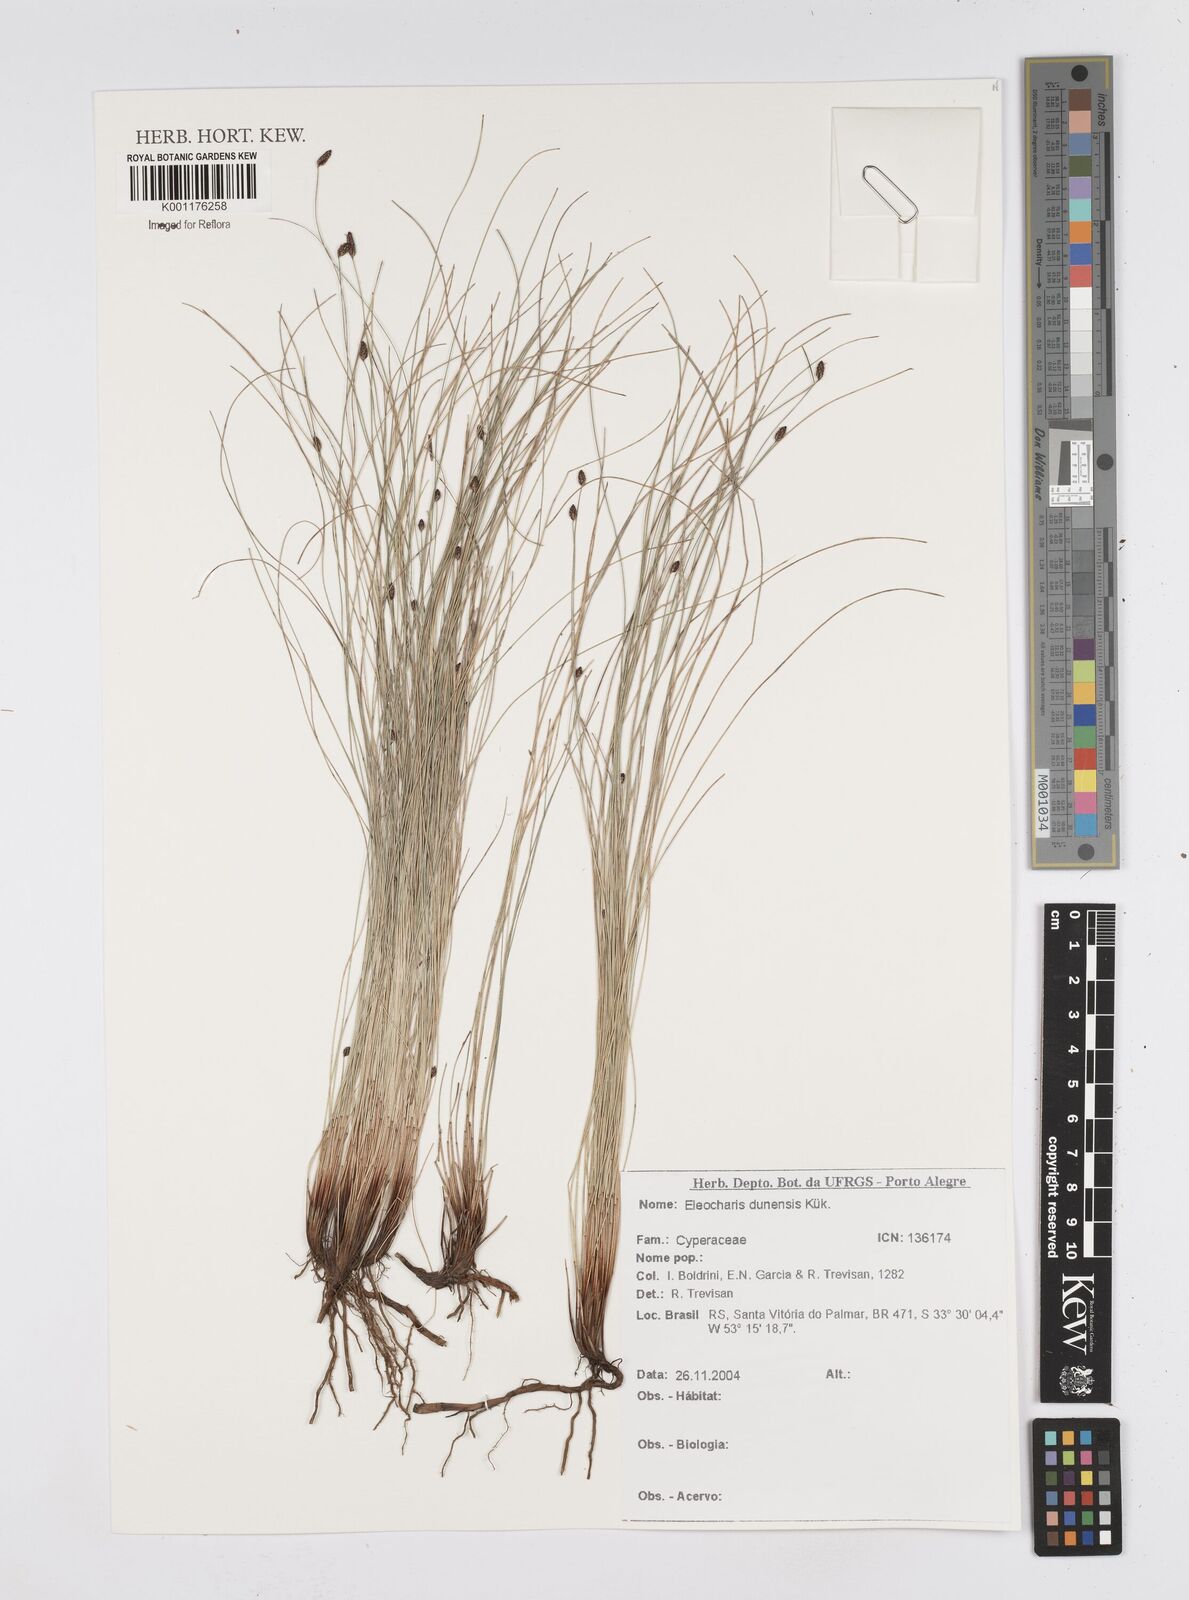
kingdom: Plantae
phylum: Tracheophyta
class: Liliopsida
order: Poales
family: Cyperaceae
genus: Eleocharis
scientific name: Eleocharis dunensis
